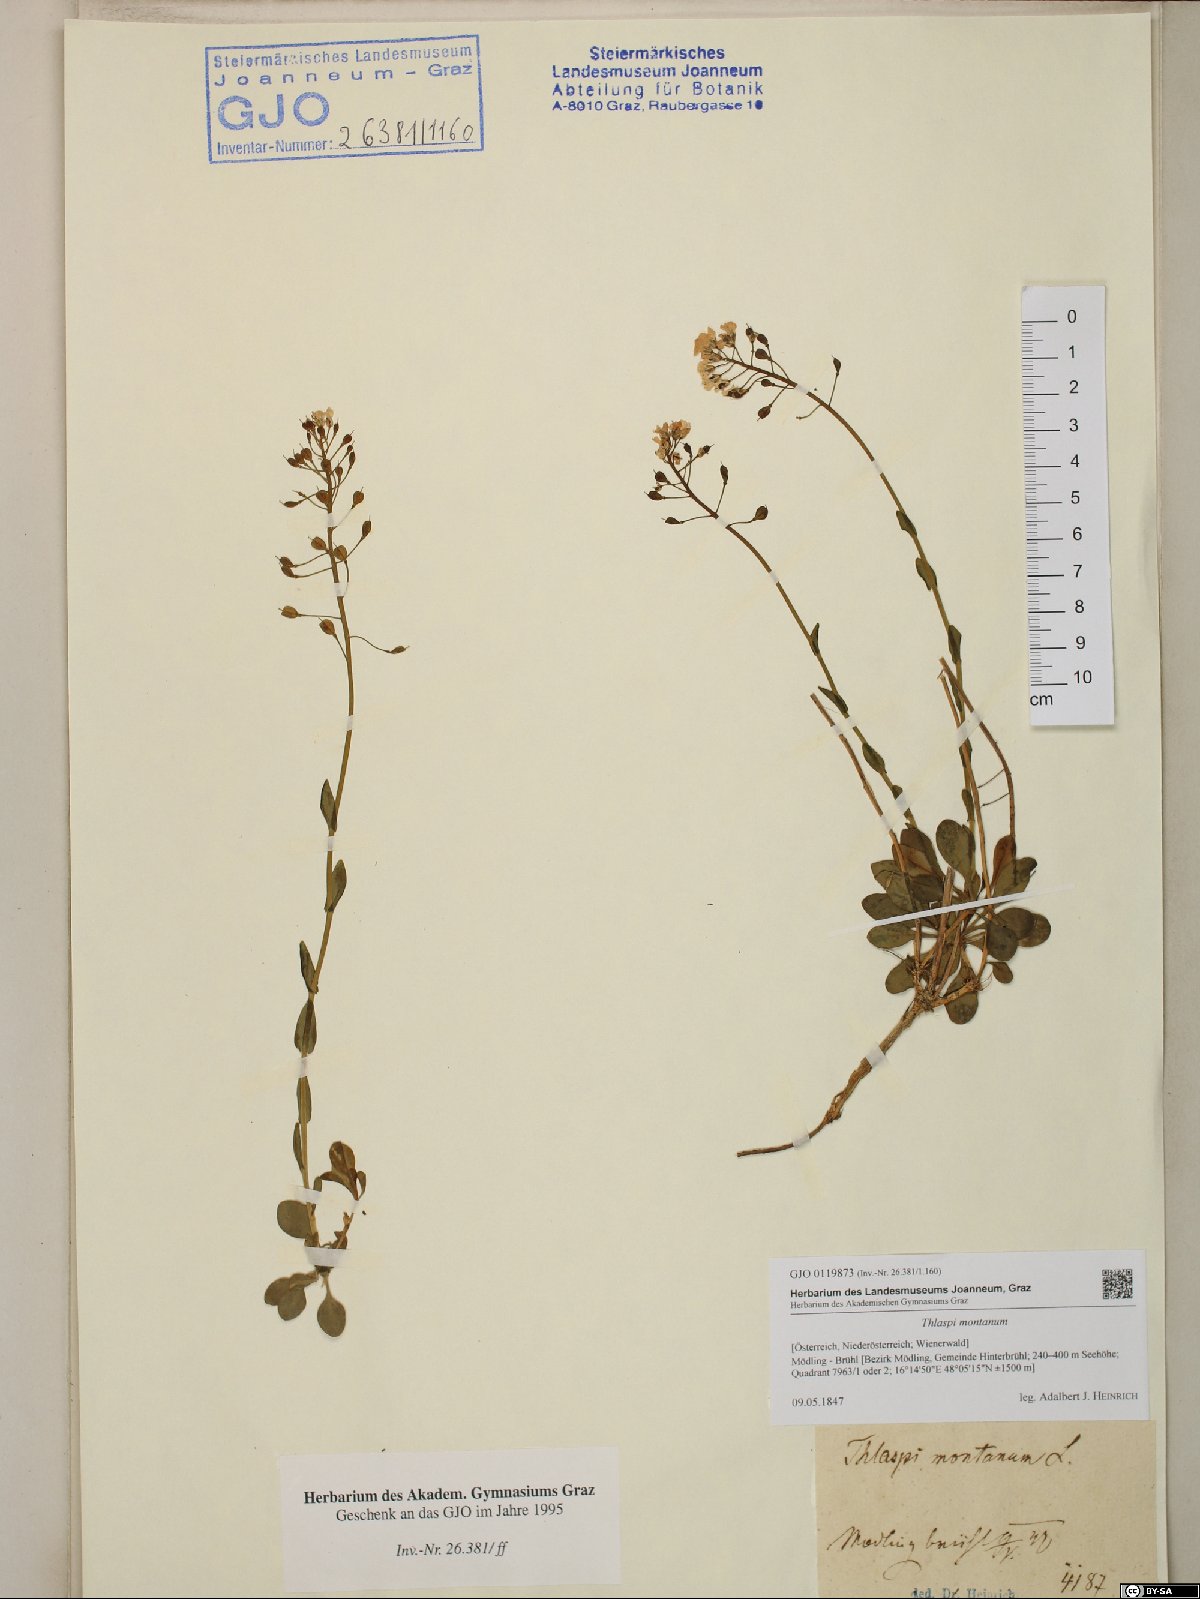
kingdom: Plantae
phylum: Tracheophyta
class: Magnoliopsida
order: Brassicales
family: Brassicaceae
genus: Noccaea
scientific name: Noccaea montana
